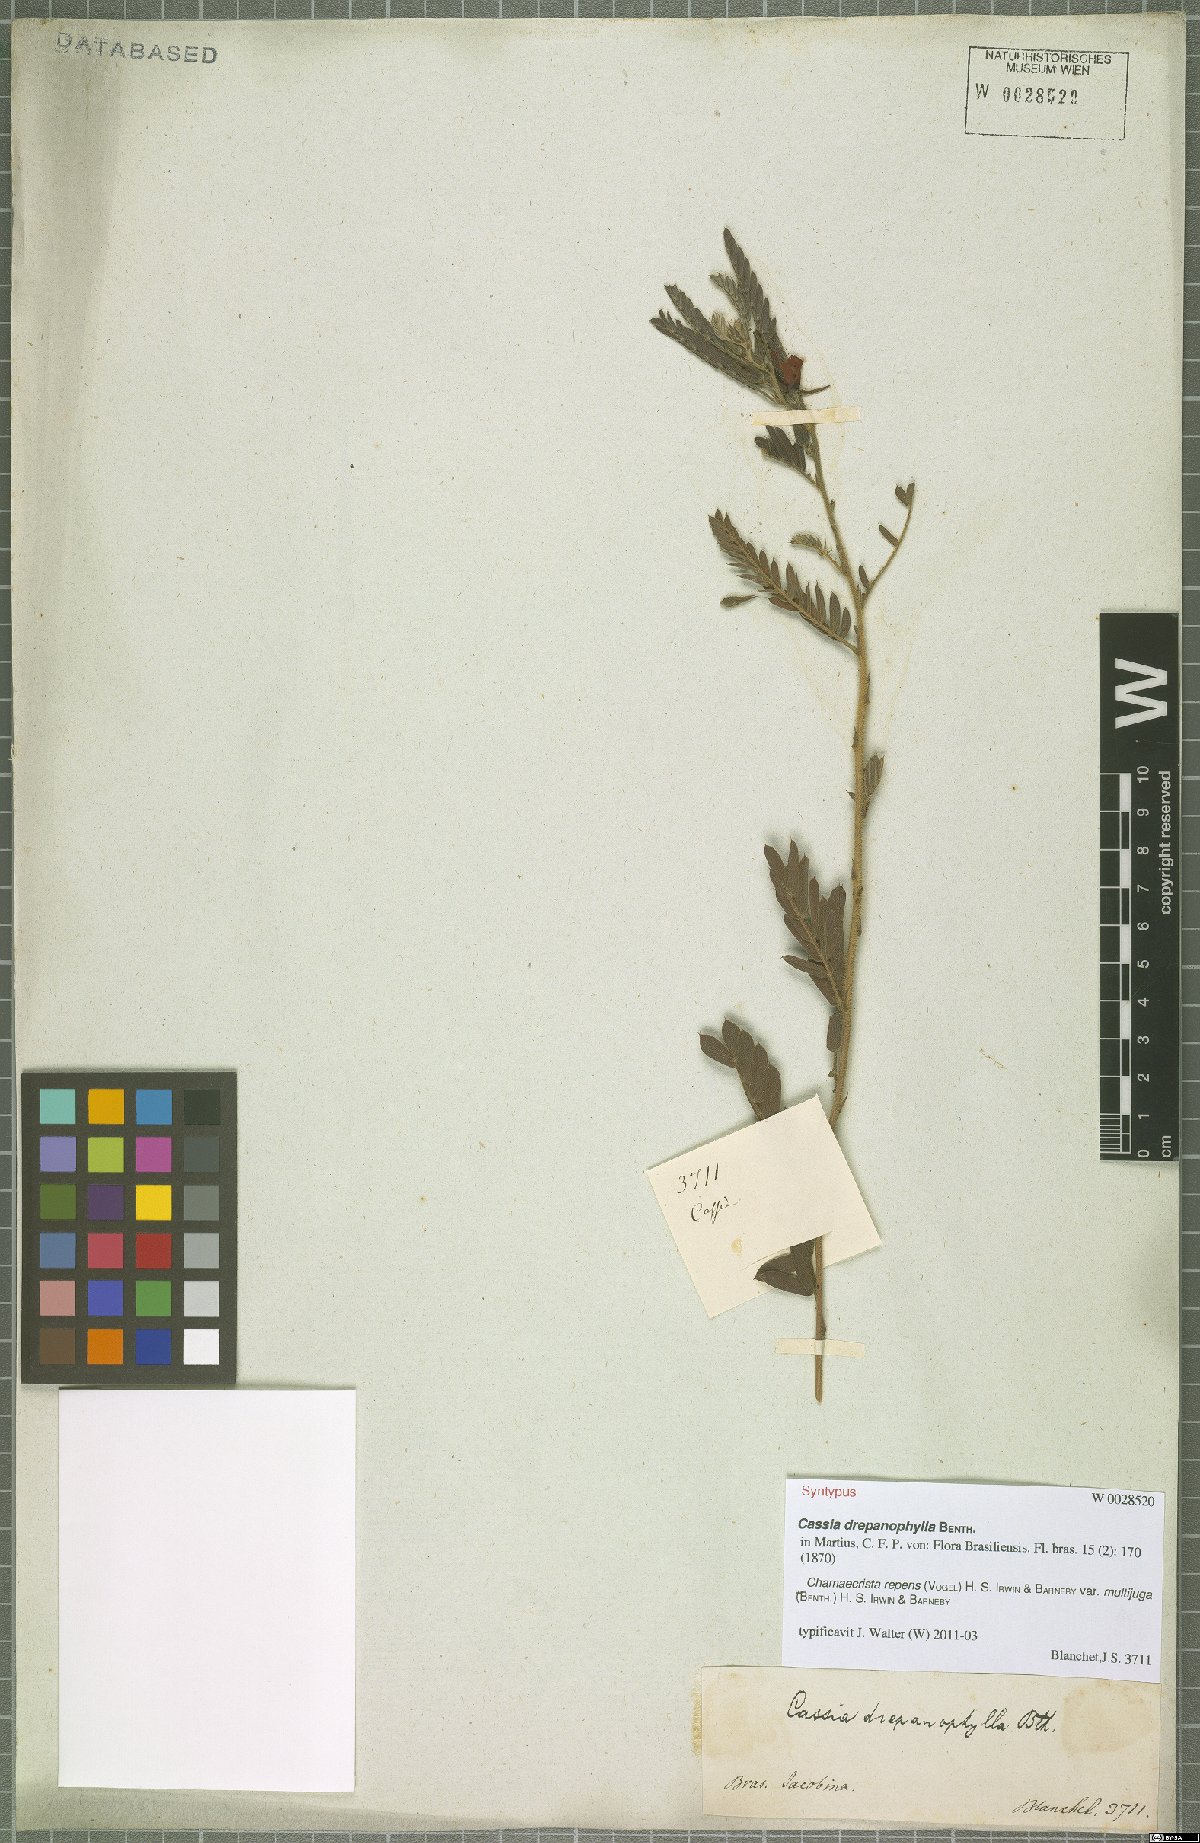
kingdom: Plantae
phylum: Tracheophyta
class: Magnoliopsida
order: Fabales
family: Fabaceae
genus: Chamaecrista
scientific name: Chamaecrista repens
